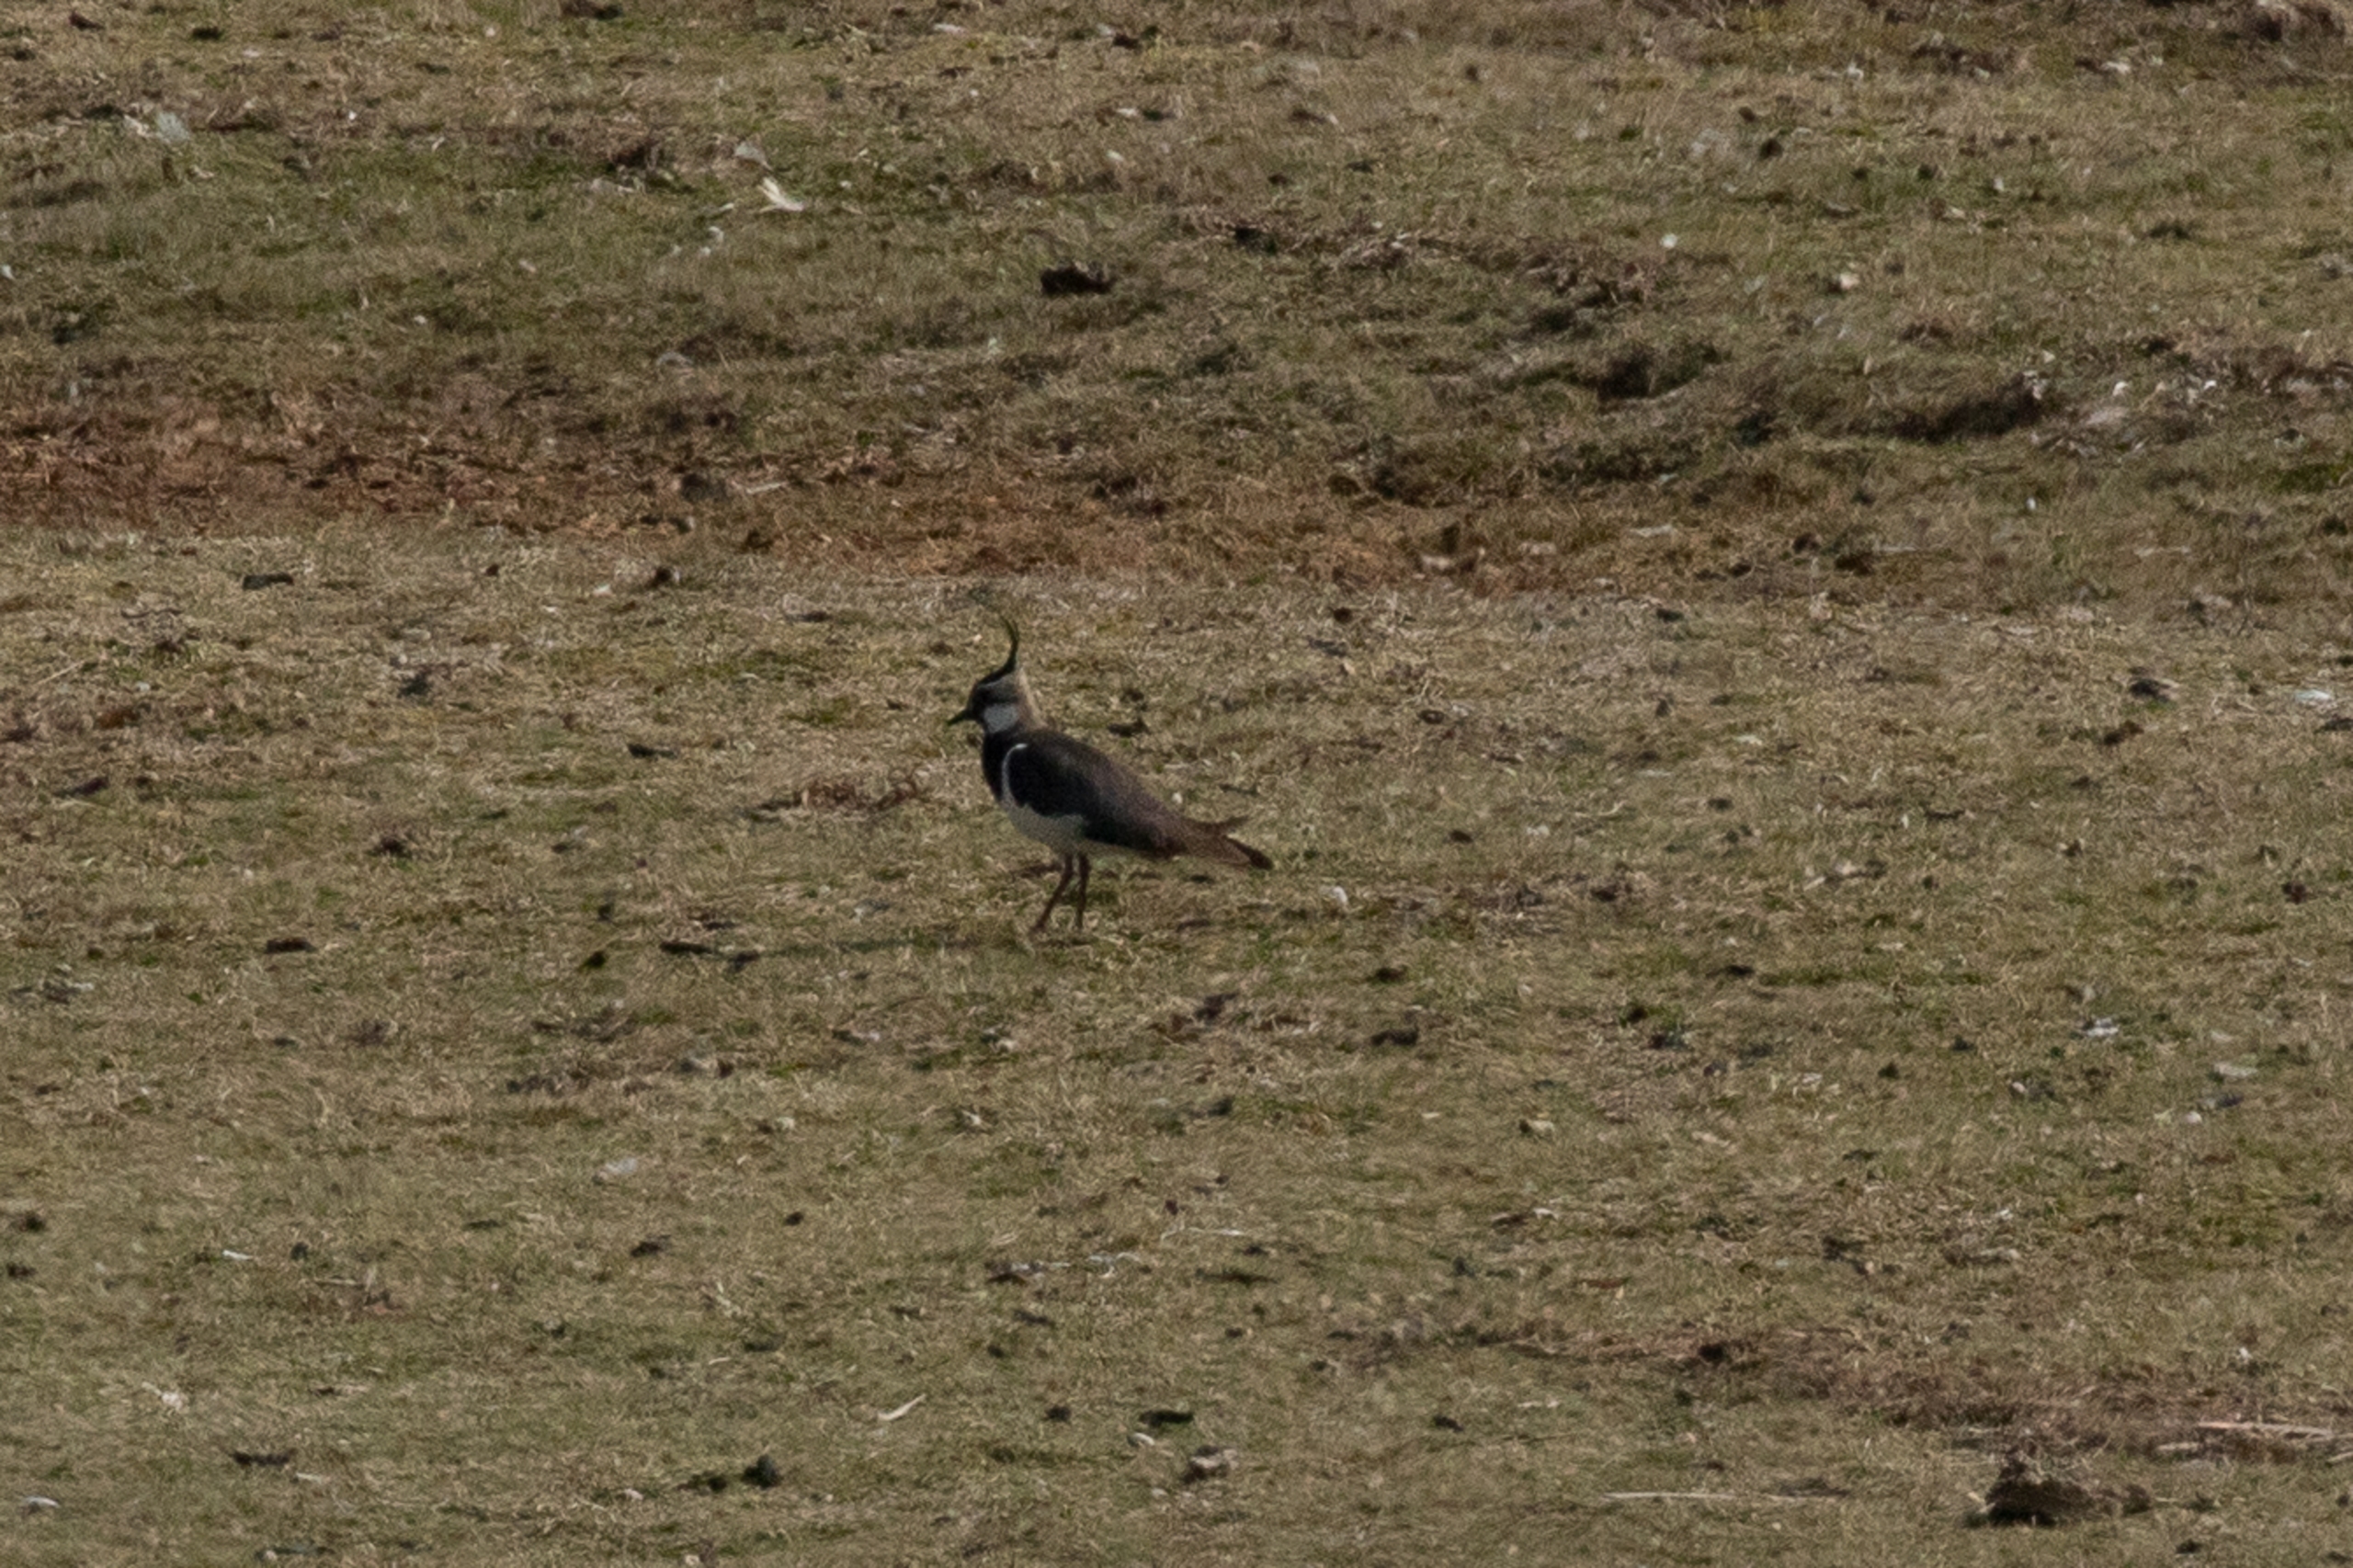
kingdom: Animalia
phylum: Chordata
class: Aves
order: Charadriiformes
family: Charadriidae
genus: Vanellus
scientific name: Vanellus vanellus
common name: Vibe
